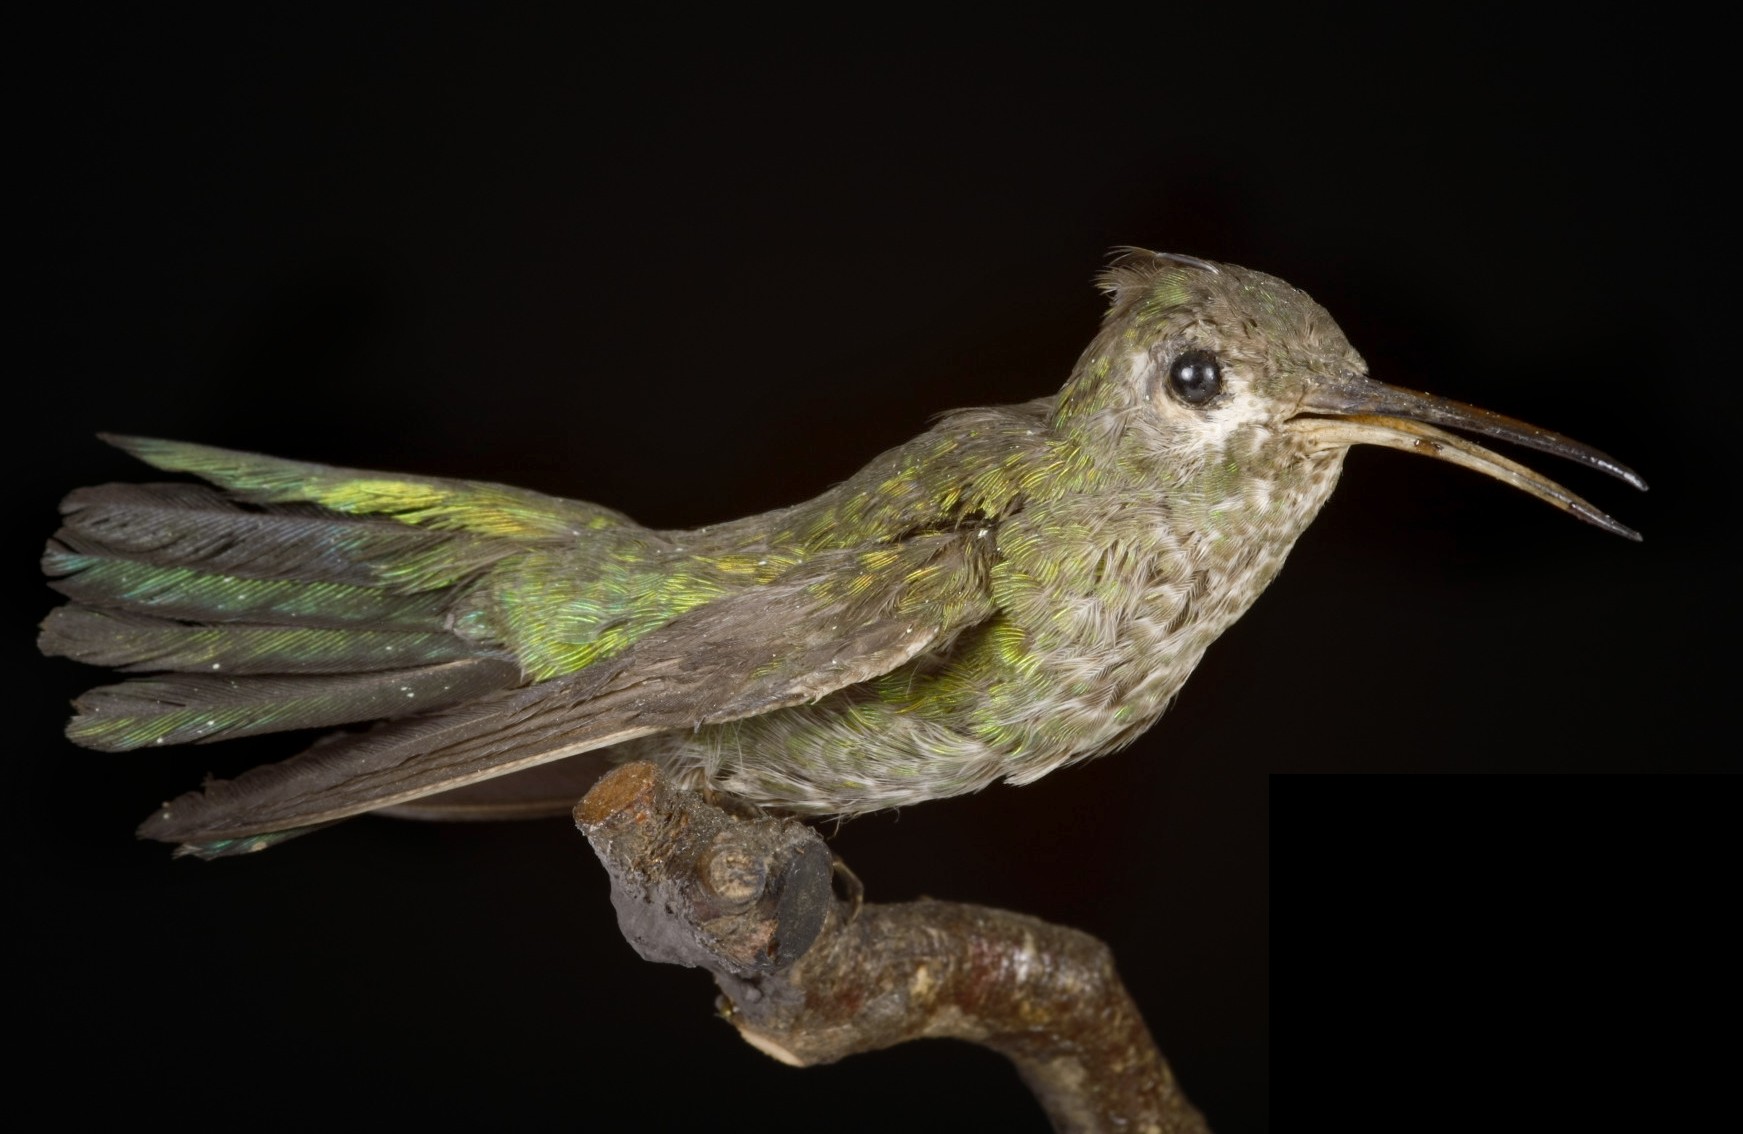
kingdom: Animalia
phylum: Chordata
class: Aves
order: Apodiformes
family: Trochilidae
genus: Polytmus
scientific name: Polytmus guainumbi
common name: White-tailed goldenthroat
